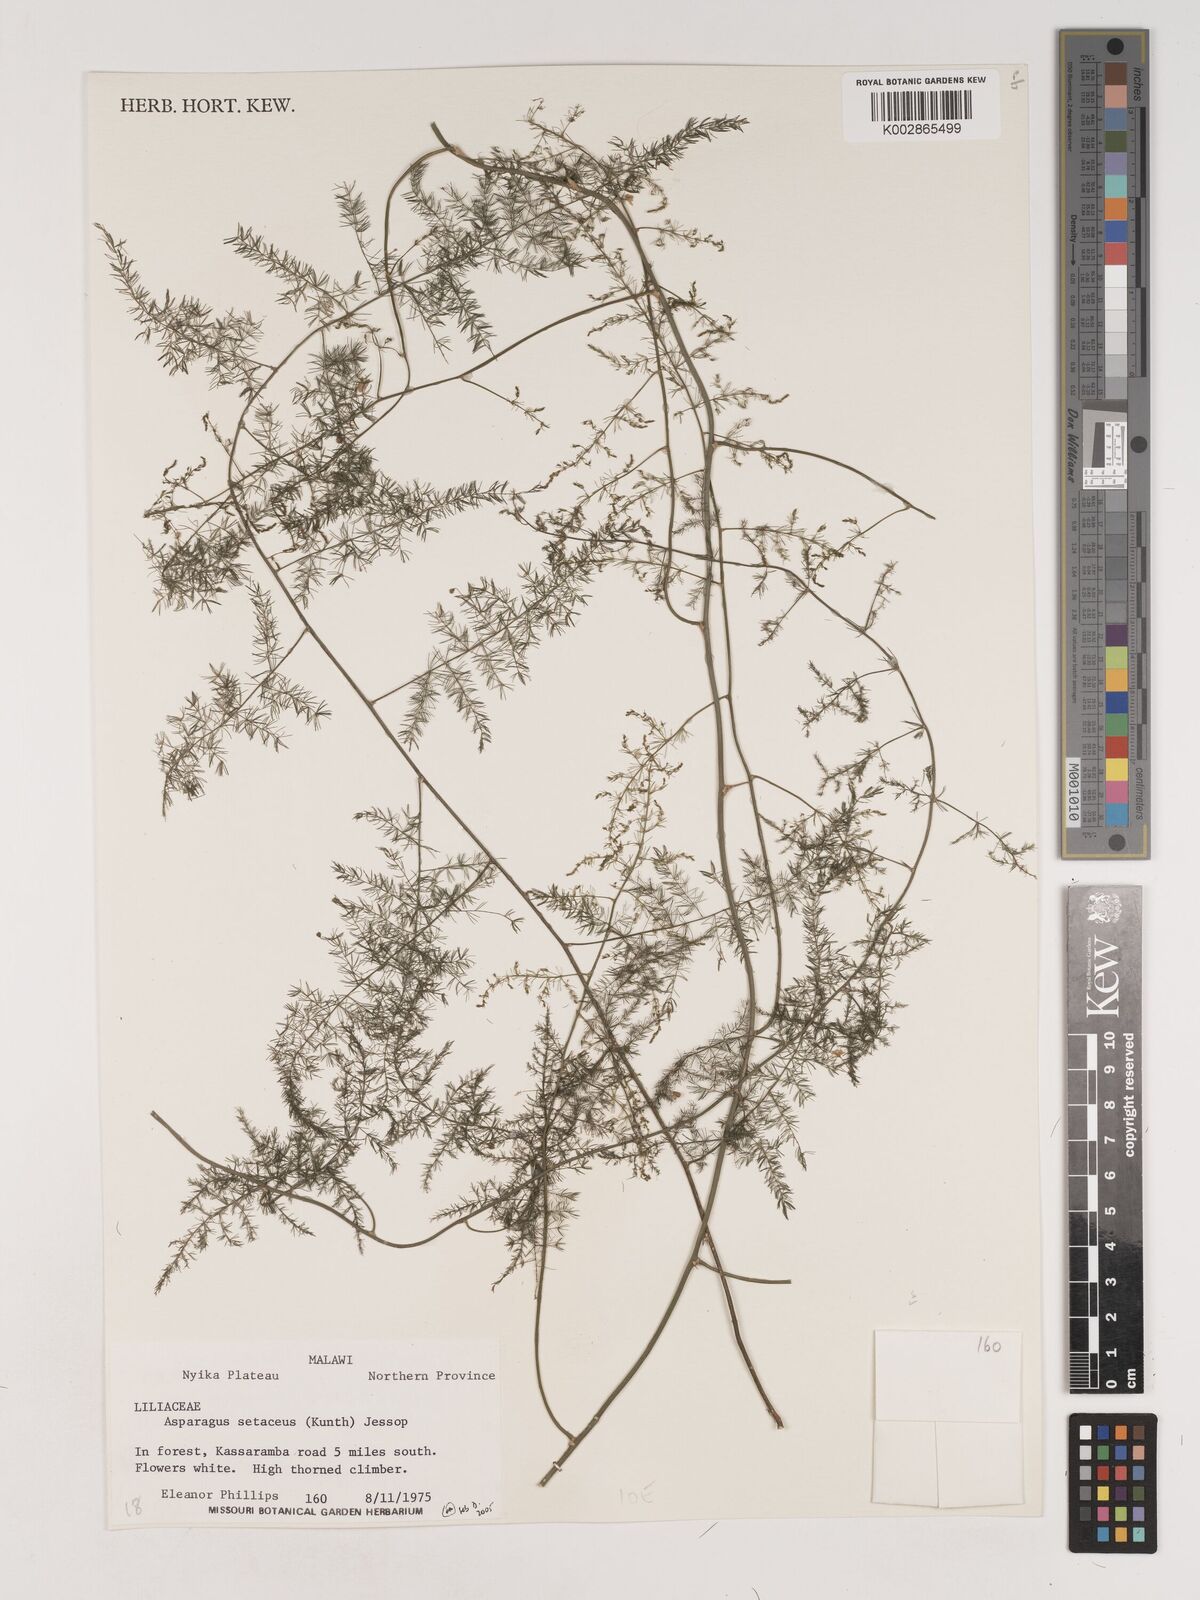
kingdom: Plantae
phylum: Tracheophyta
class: Liliopsida
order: Asparagales
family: Asparagaceae
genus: Asparagus
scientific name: Asparagus setaceus
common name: Common asparagus fern
